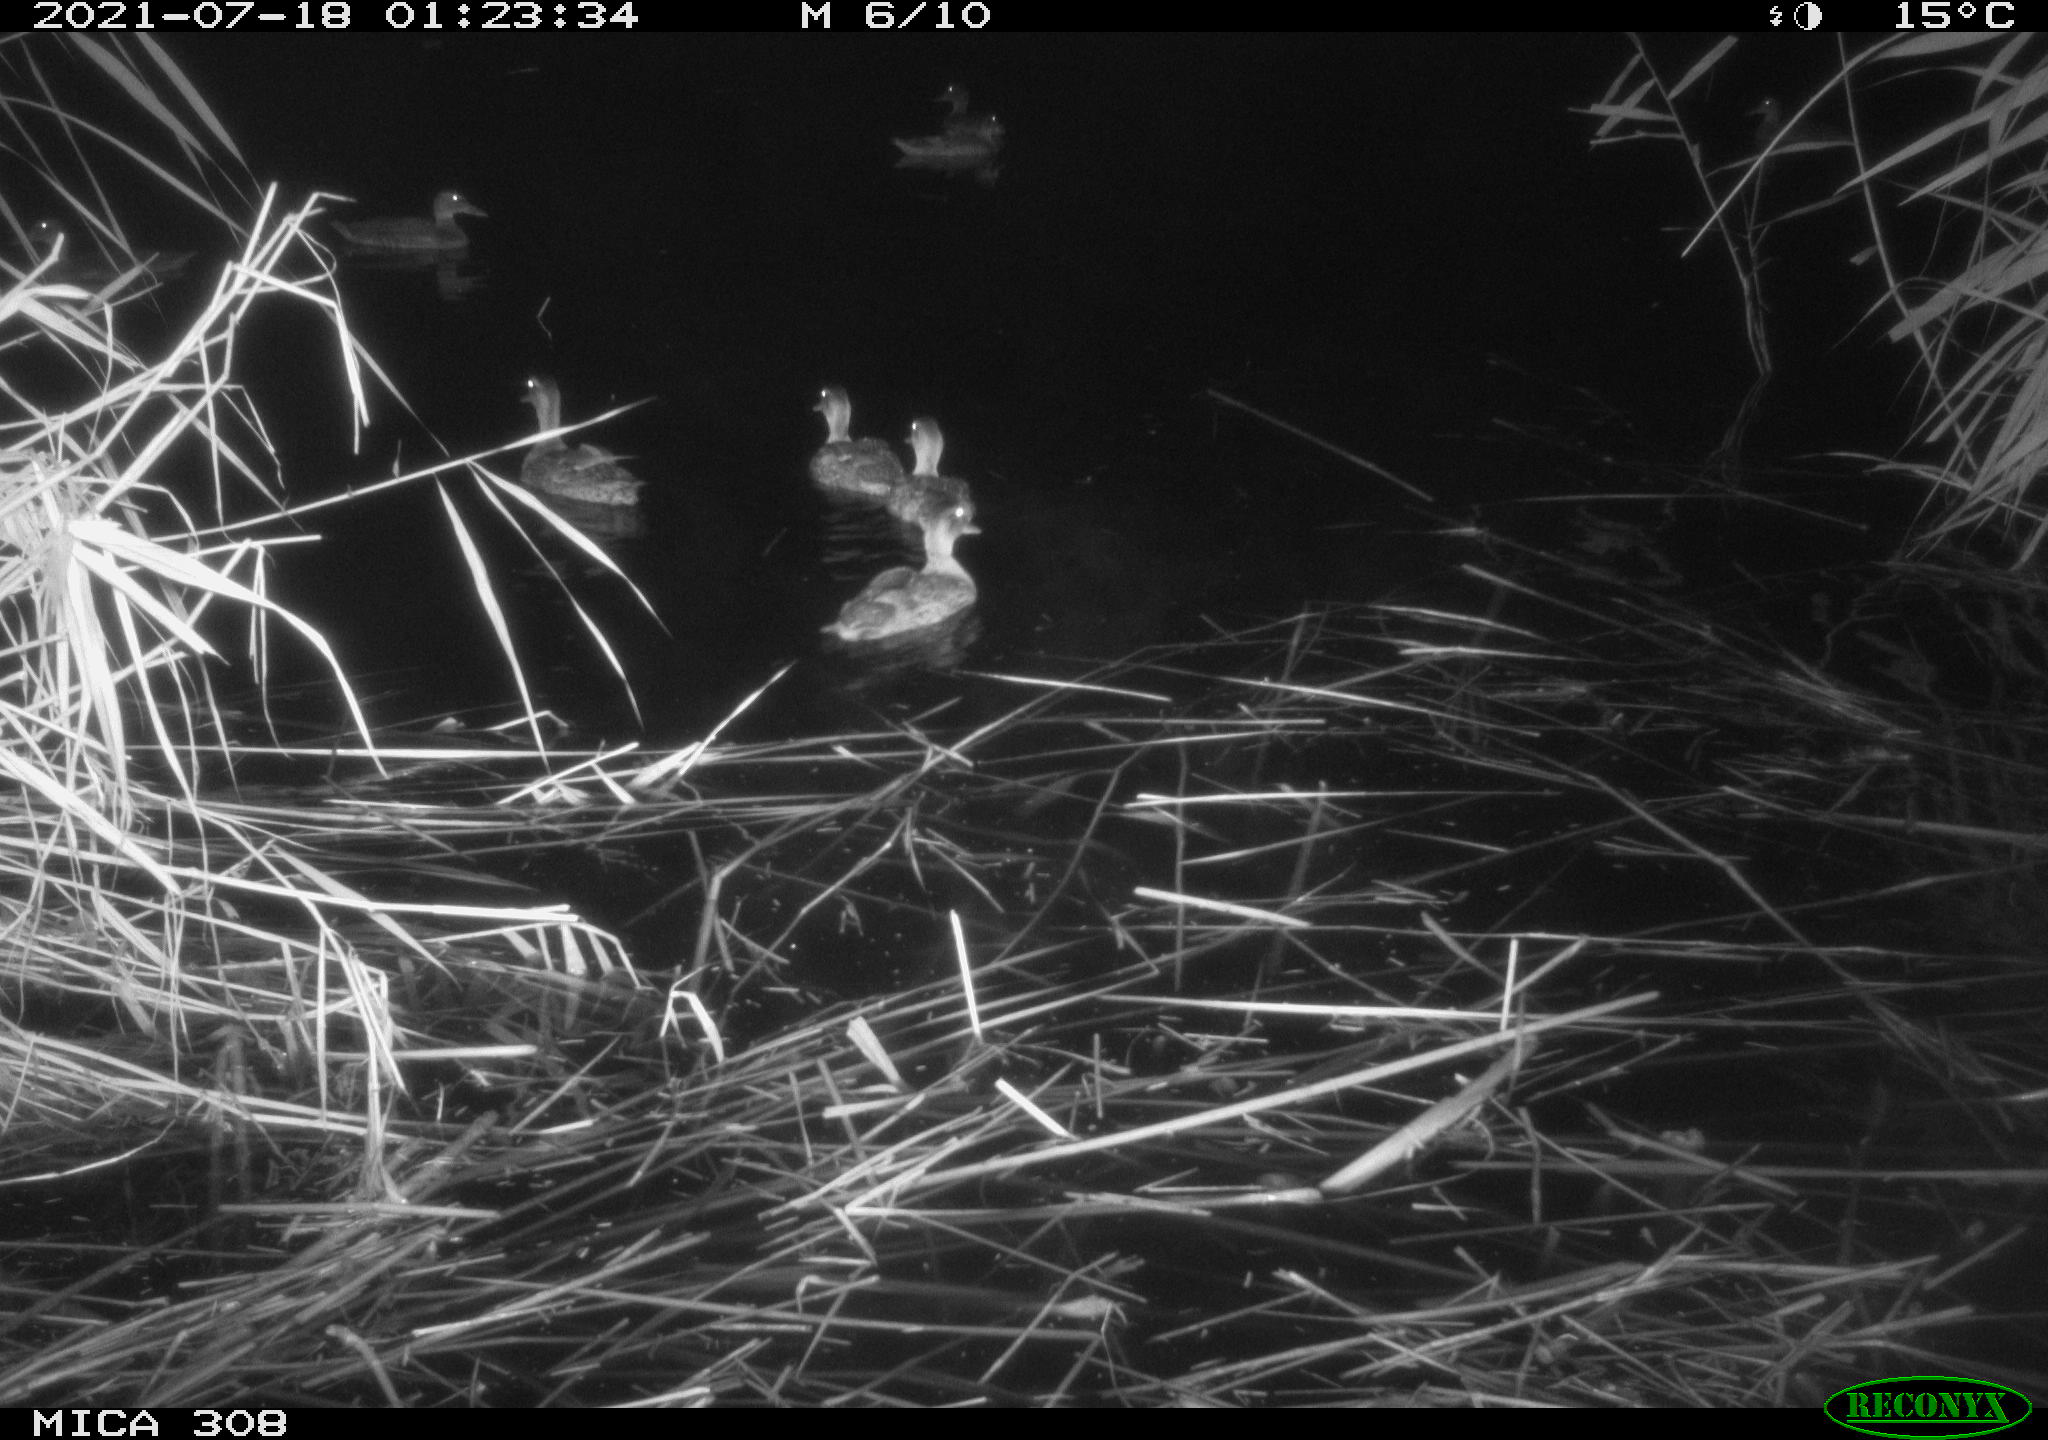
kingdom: Animalia
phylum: Chordata
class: Aves
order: Anseriformes
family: Anatidae
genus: Anas
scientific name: Anas platyrhynchos
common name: Mallard
